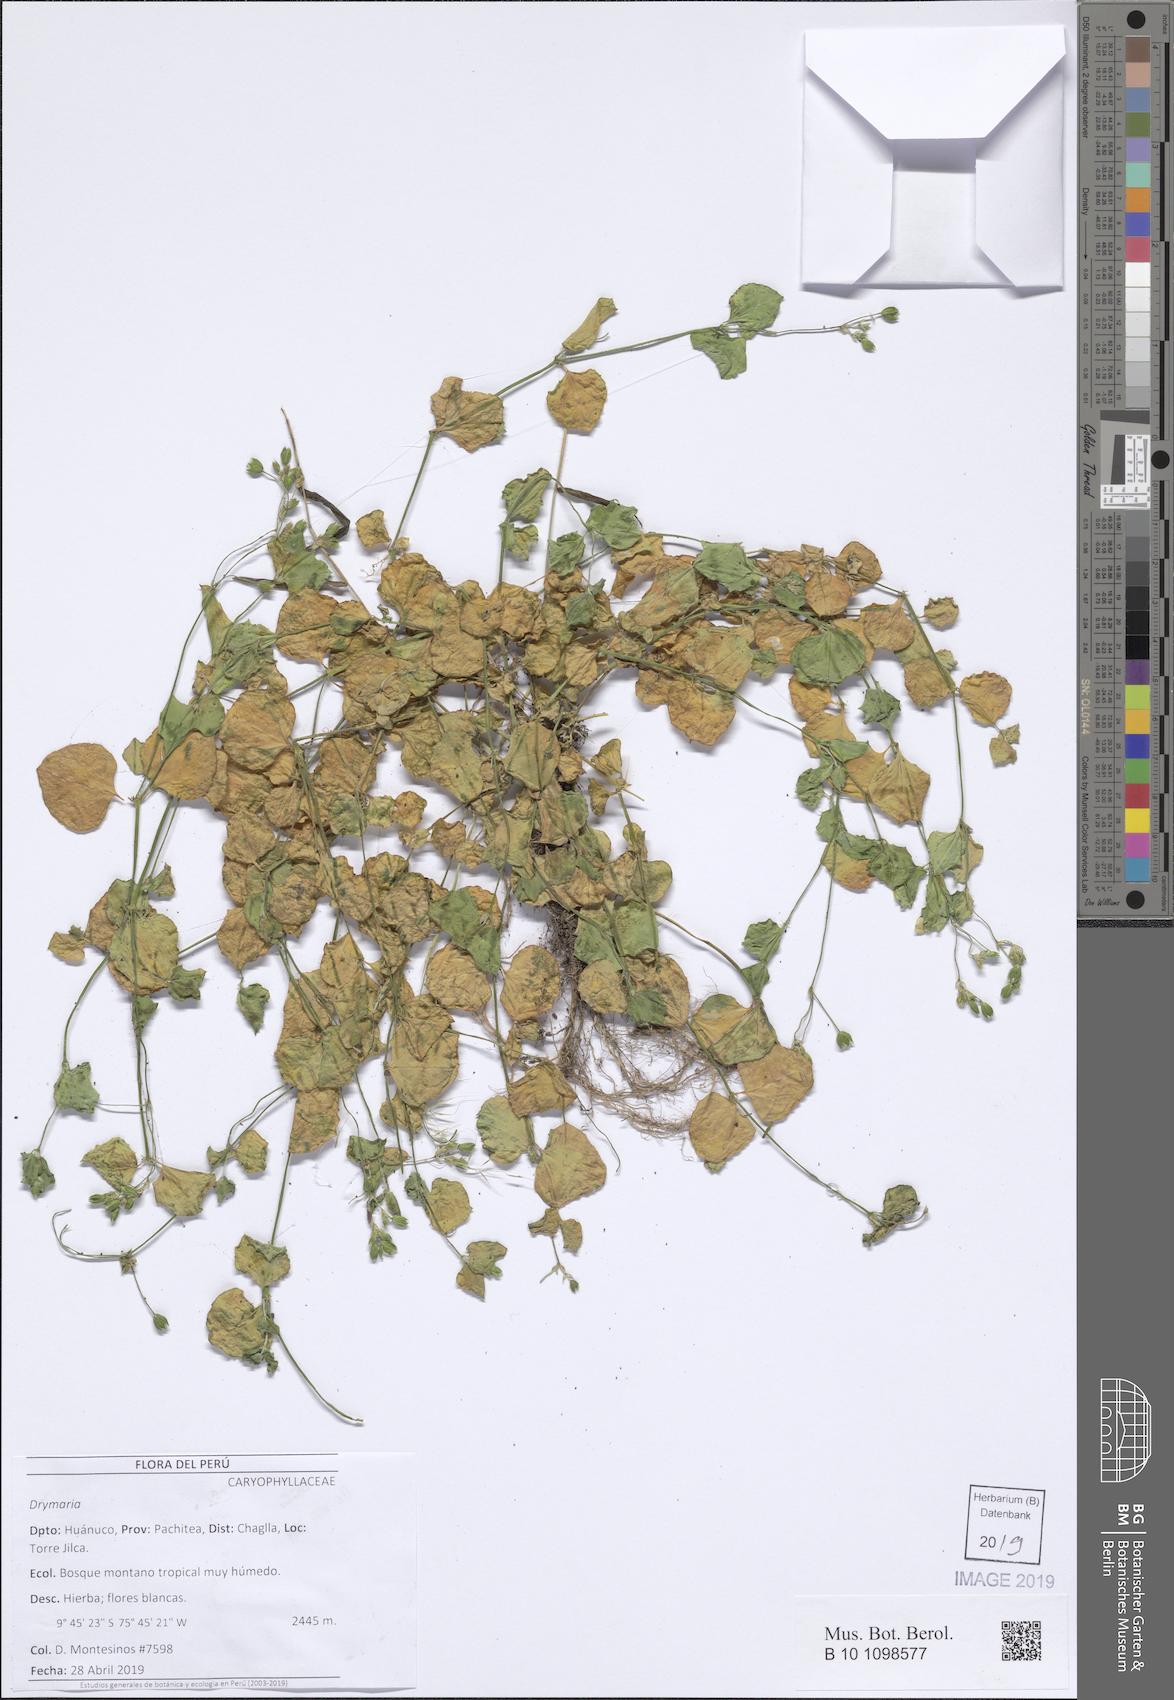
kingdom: Plantae
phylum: Tracheophyta
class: Magnoliopsida
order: Caryophyllales
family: Caryophyllaceae
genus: Drymaria
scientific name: Drymaria
